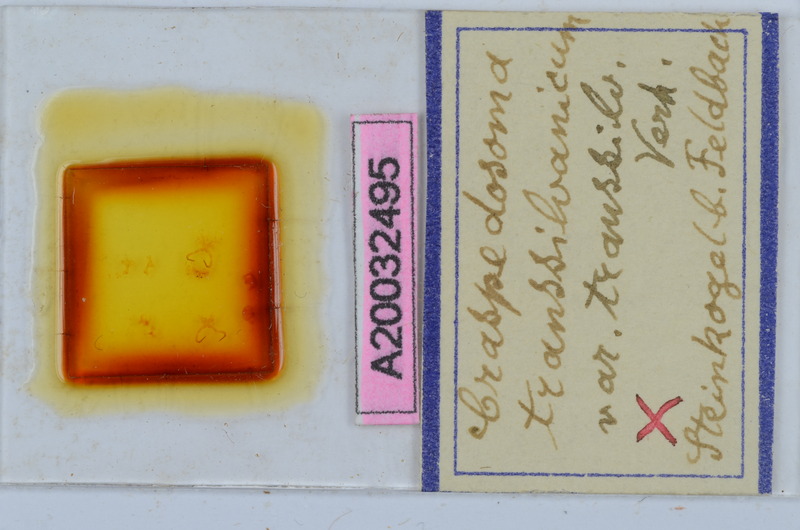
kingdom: Animalia
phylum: Arthropoda
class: Diplopoda
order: Chordeumatida
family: Craspedosomatidae
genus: Craspedosoma
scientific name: Craspedosoma rawlinsii
